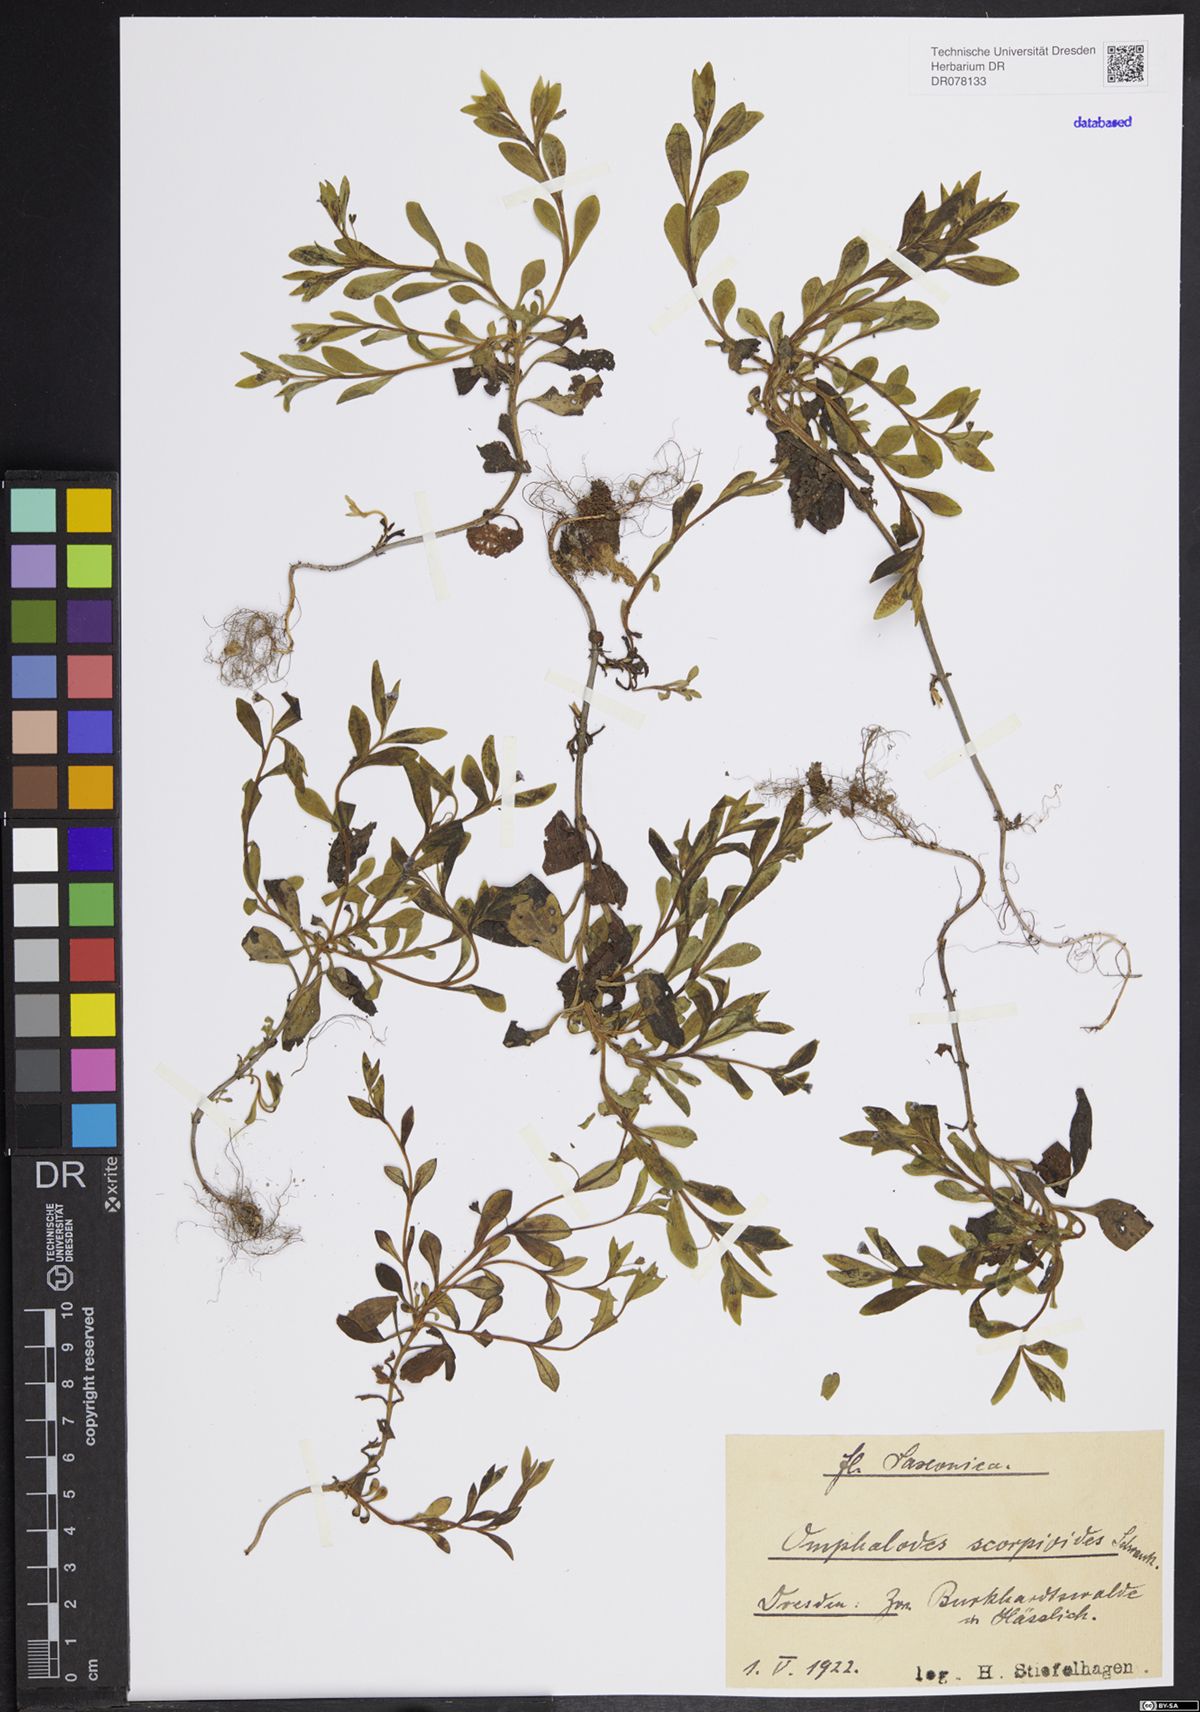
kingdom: Plantae
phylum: Tracheophyta
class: Magnoliopsida
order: Boraginales
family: Boraginaceae
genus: Memoremea
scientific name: Memoremea scorpioides
